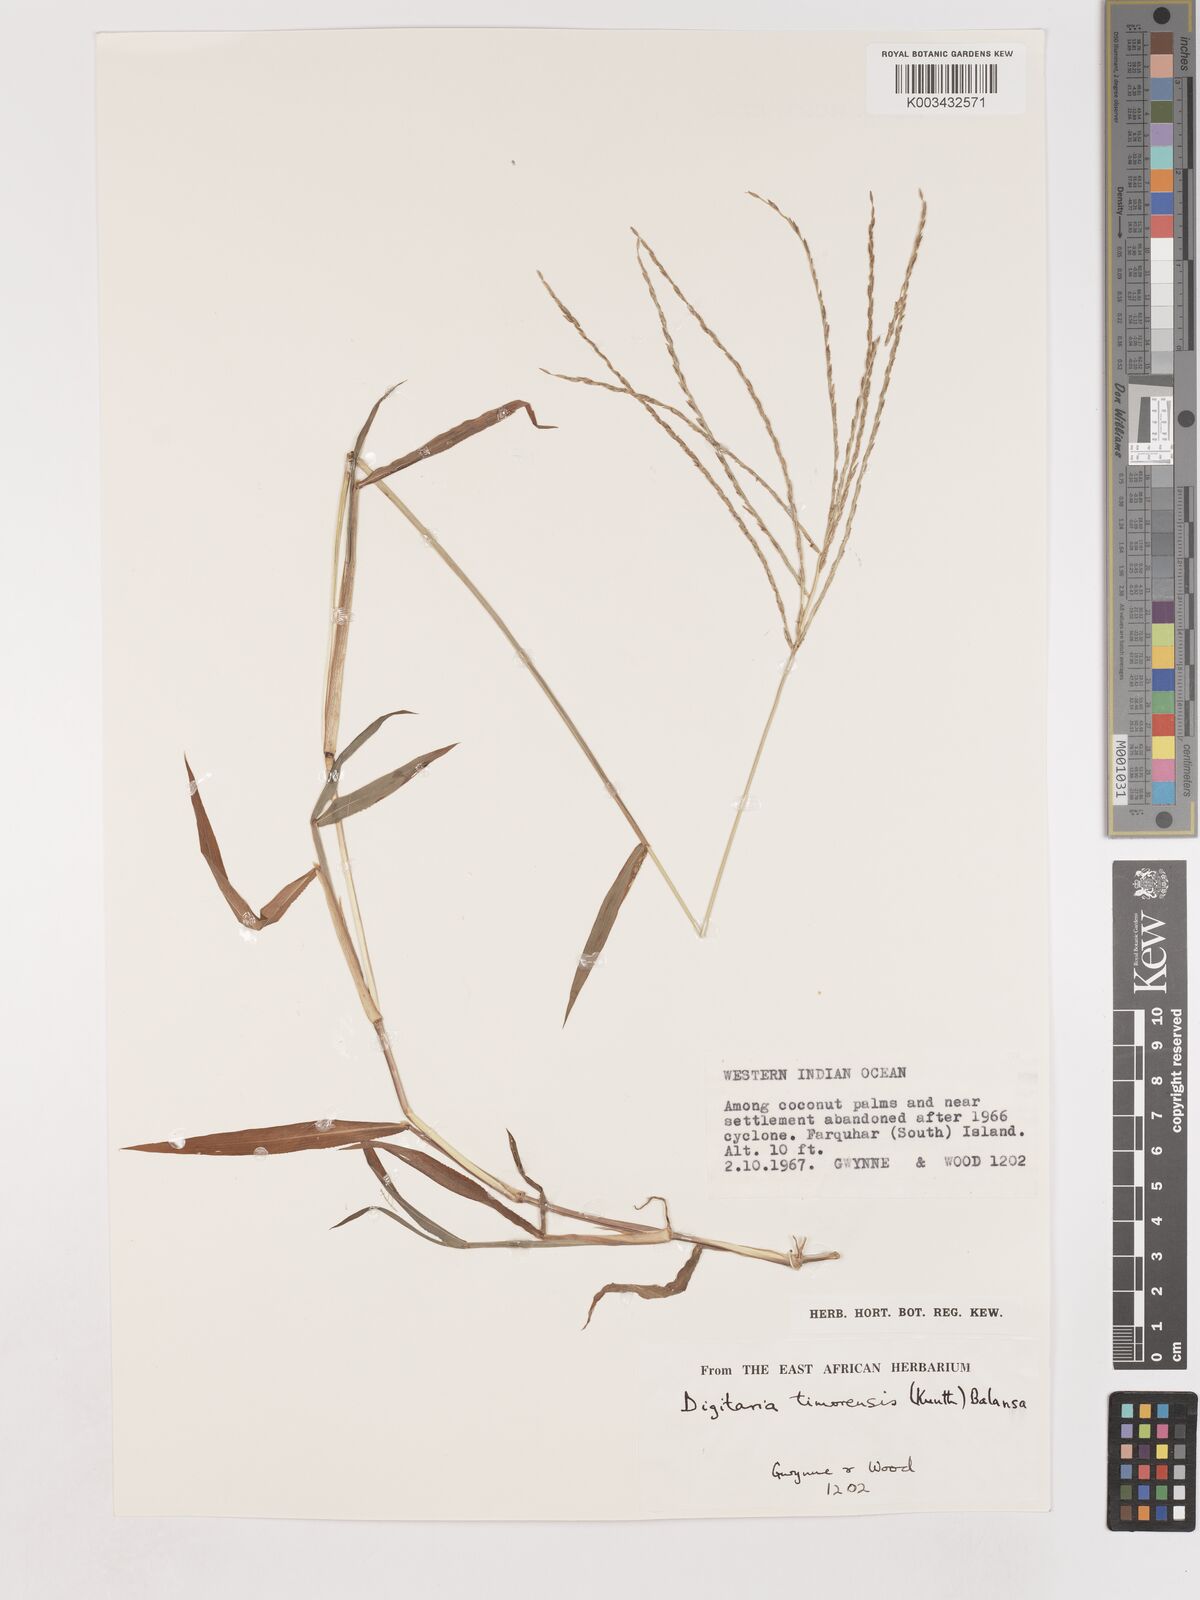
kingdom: Plantae
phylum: Tracheophyta
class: Liliopsida
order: Poales
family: Poaceae
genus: Digitaria
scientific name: Digitaria setigera
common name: East indian crabgrass
